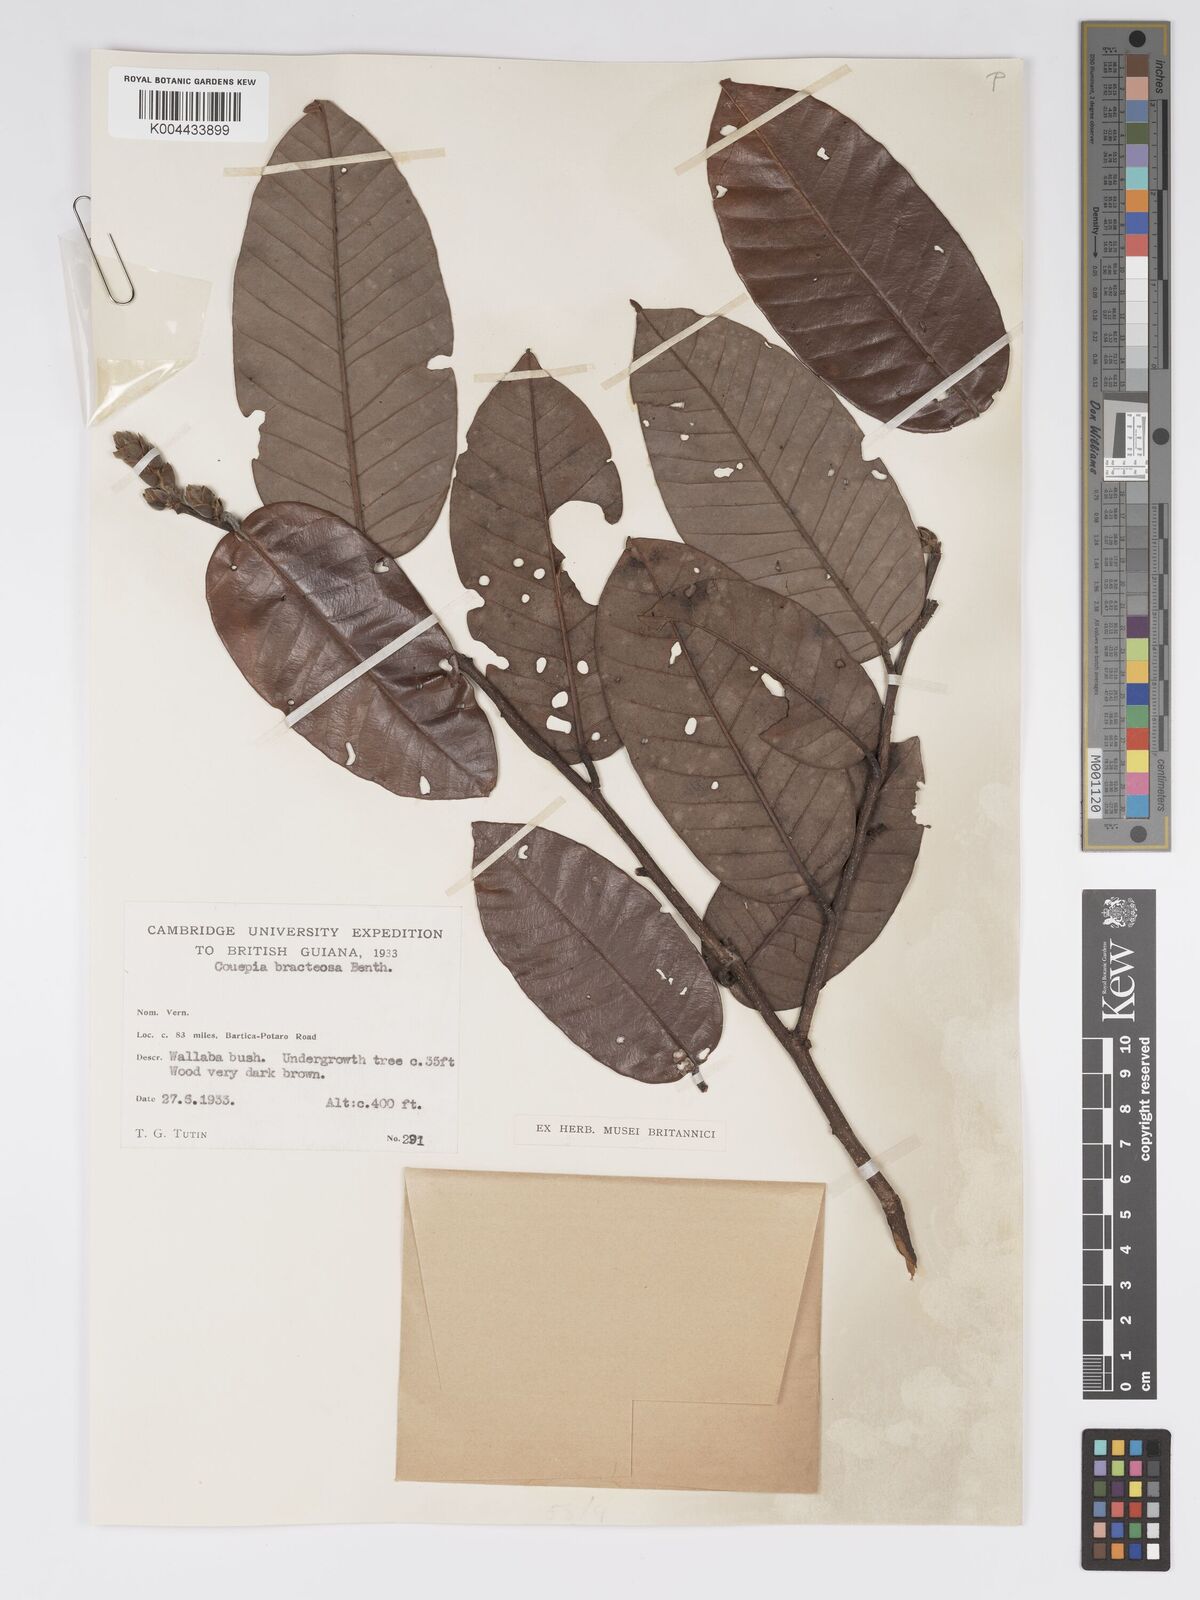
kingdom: Plantae
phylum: Tracheophyta
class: Magnoliopsida
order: Malpighiales
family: Chrysobalanaceae
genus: Couepia
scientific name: Couepia bracteosa
